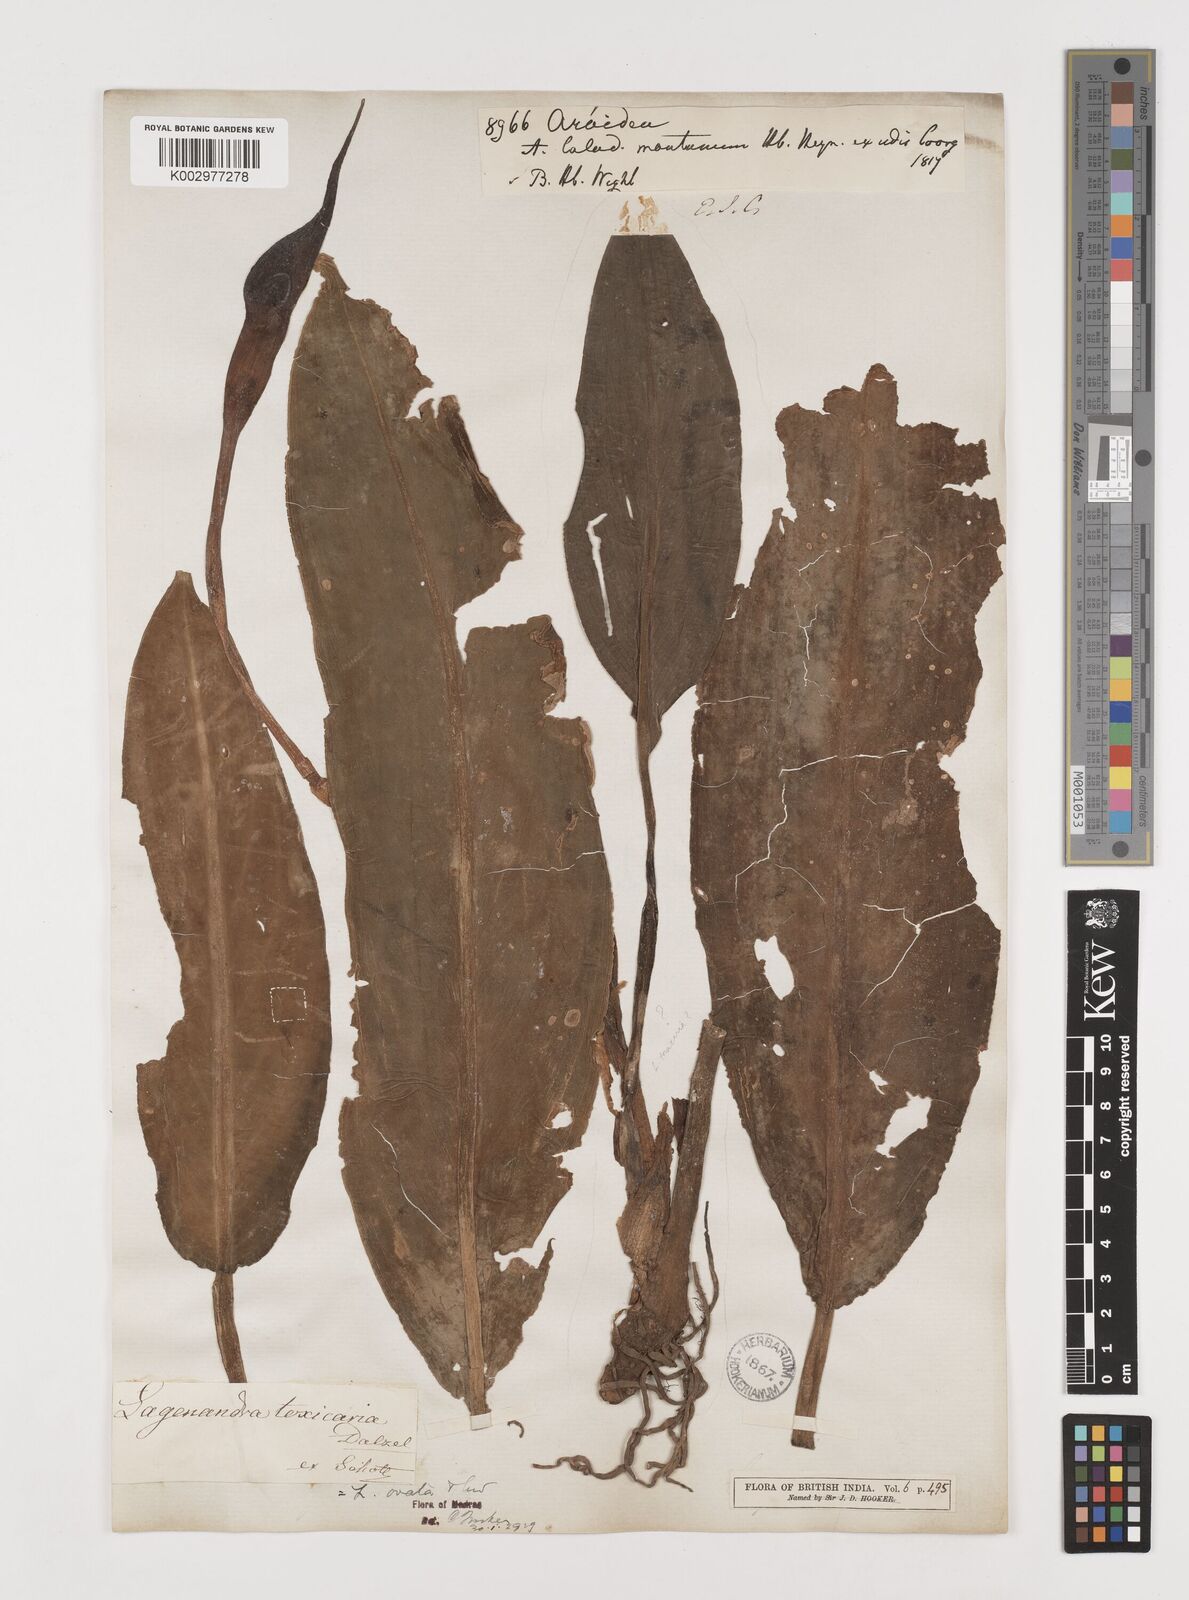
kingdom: Plantae
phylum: Tracheophyta
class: Liliopsida
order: Alismatales
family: Araceae
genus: Lagenandra
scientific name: Lagenandra ovata
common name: Malayan sword
